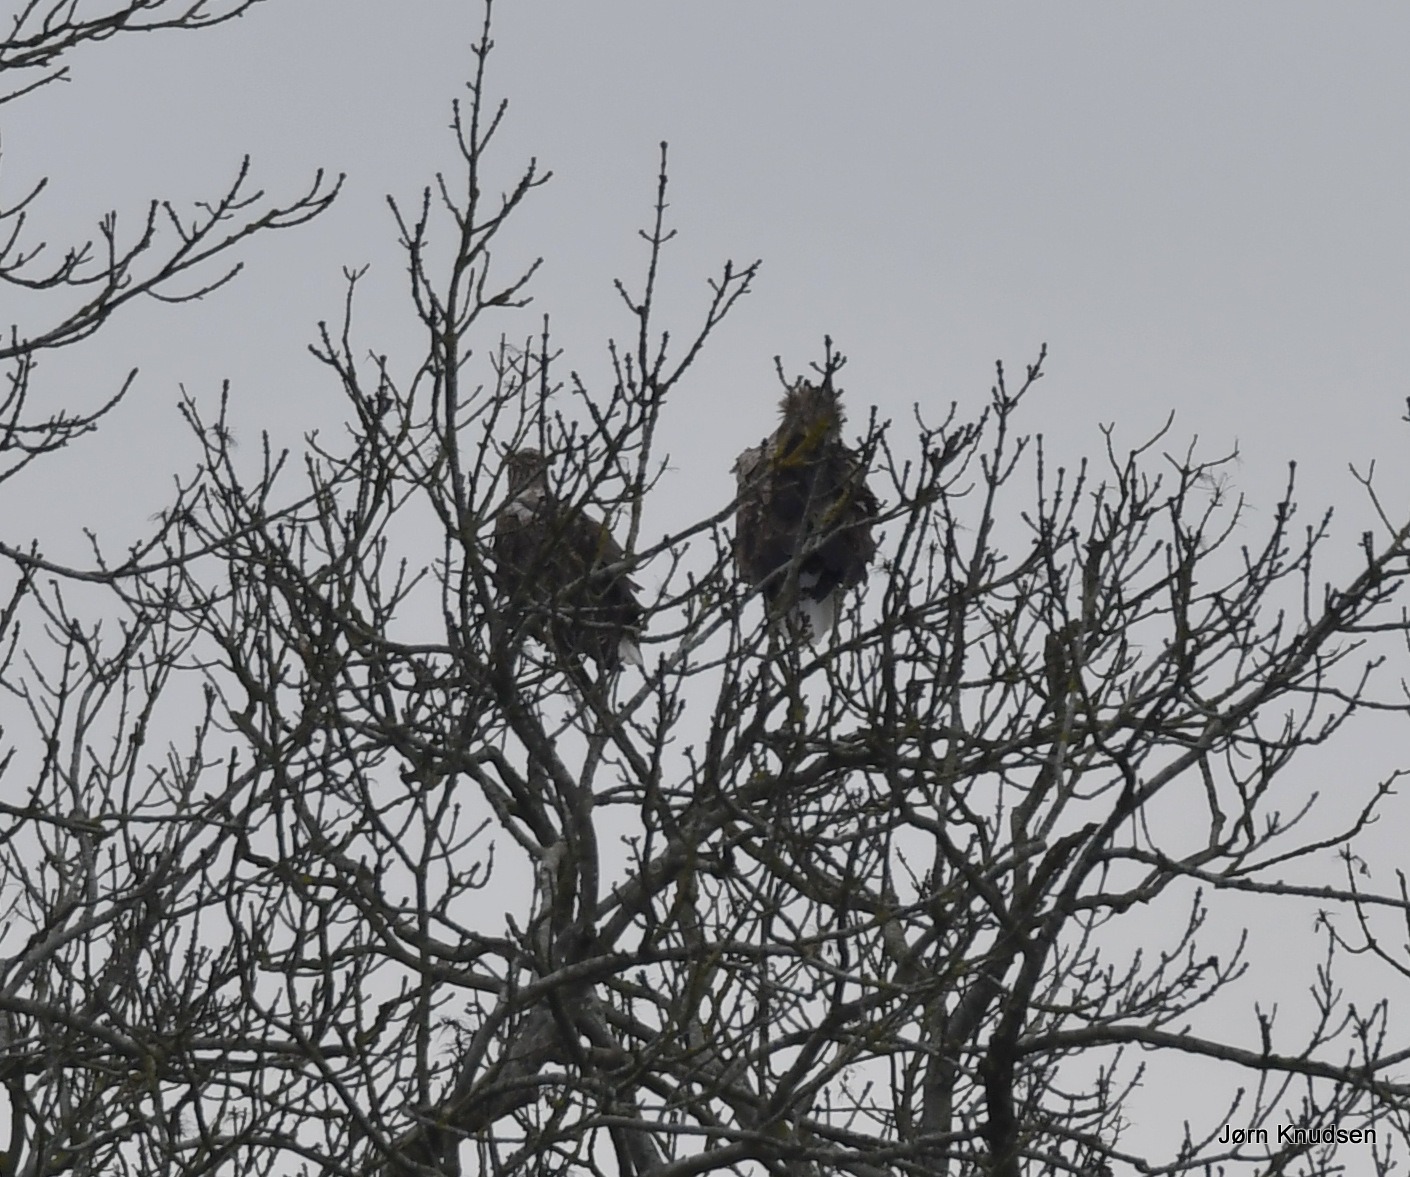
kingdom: Animalia
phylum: Chordata
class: Aves
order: Accipitriformes
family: Accipitridae
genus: Haliaeetus
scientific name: Haliaeetus albicilla
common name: Havørn
